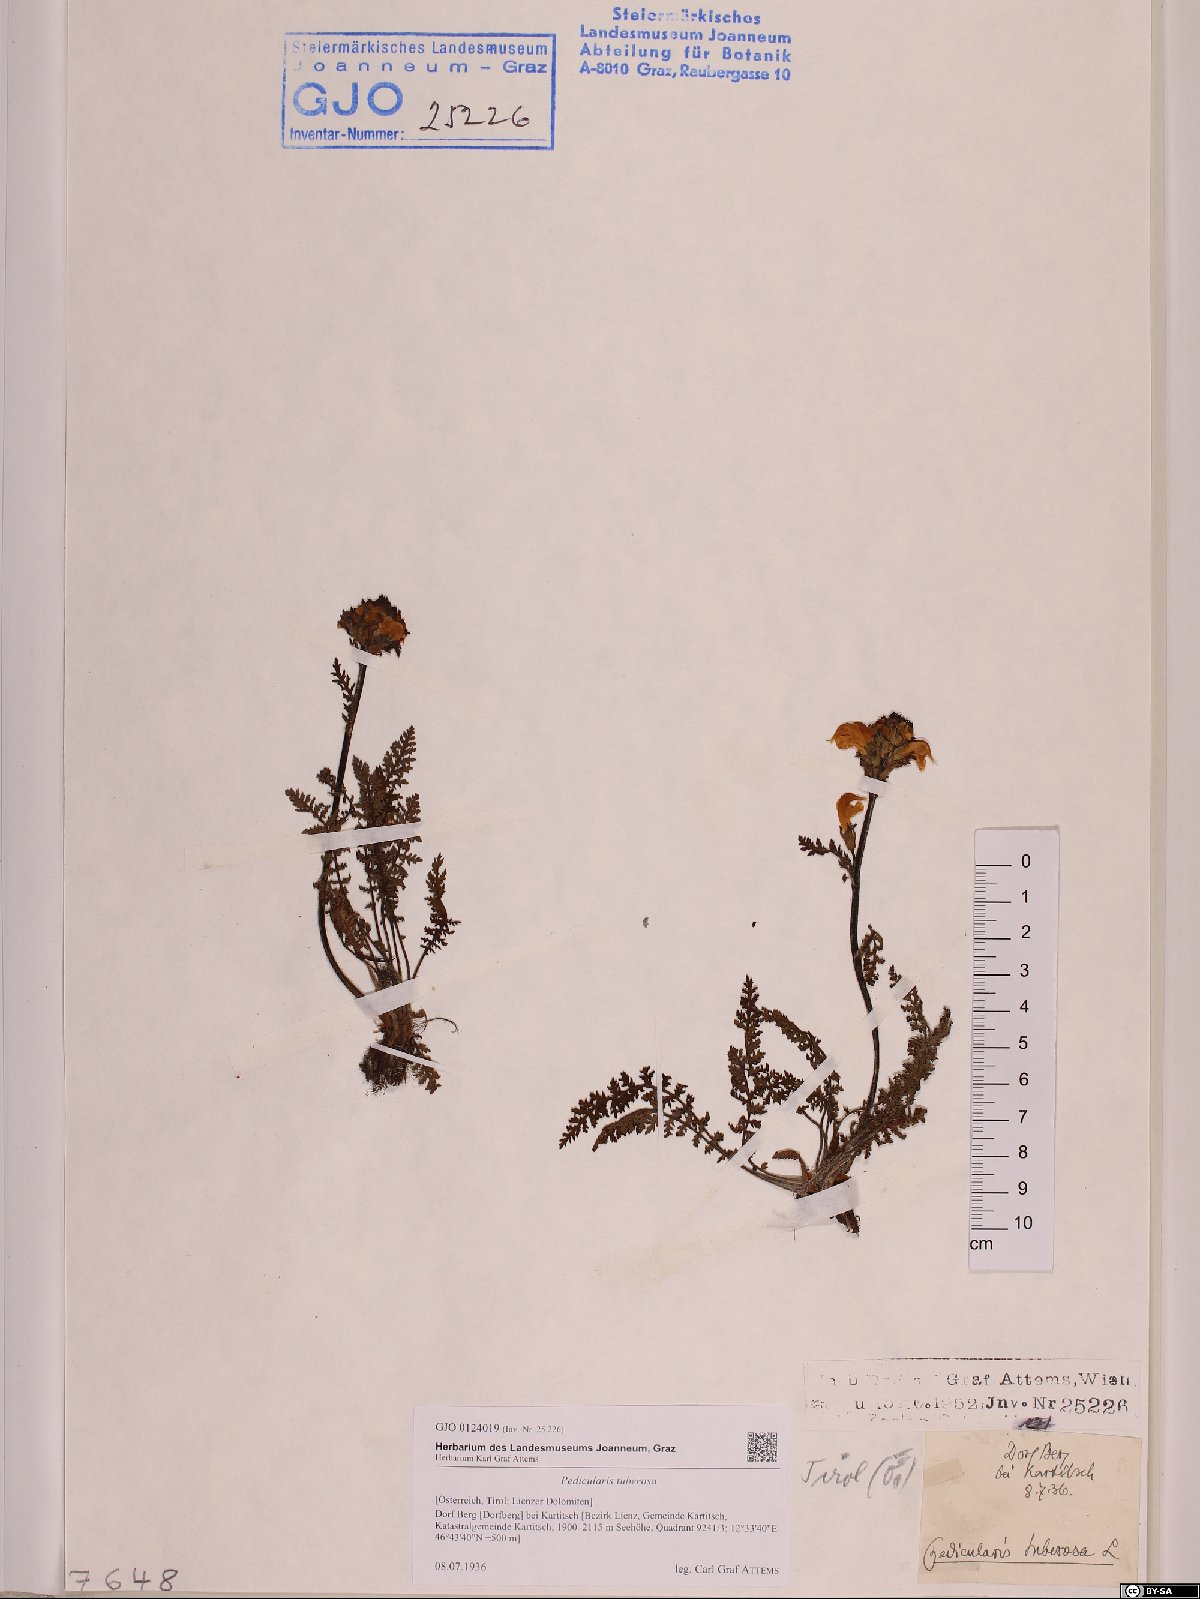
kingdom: Plantae
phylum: Tracheophyta
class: Magnoliopsida
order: Lamiales
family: Orobanchaceae
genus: Pedicularis
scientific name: Pedicularis tuberosa
